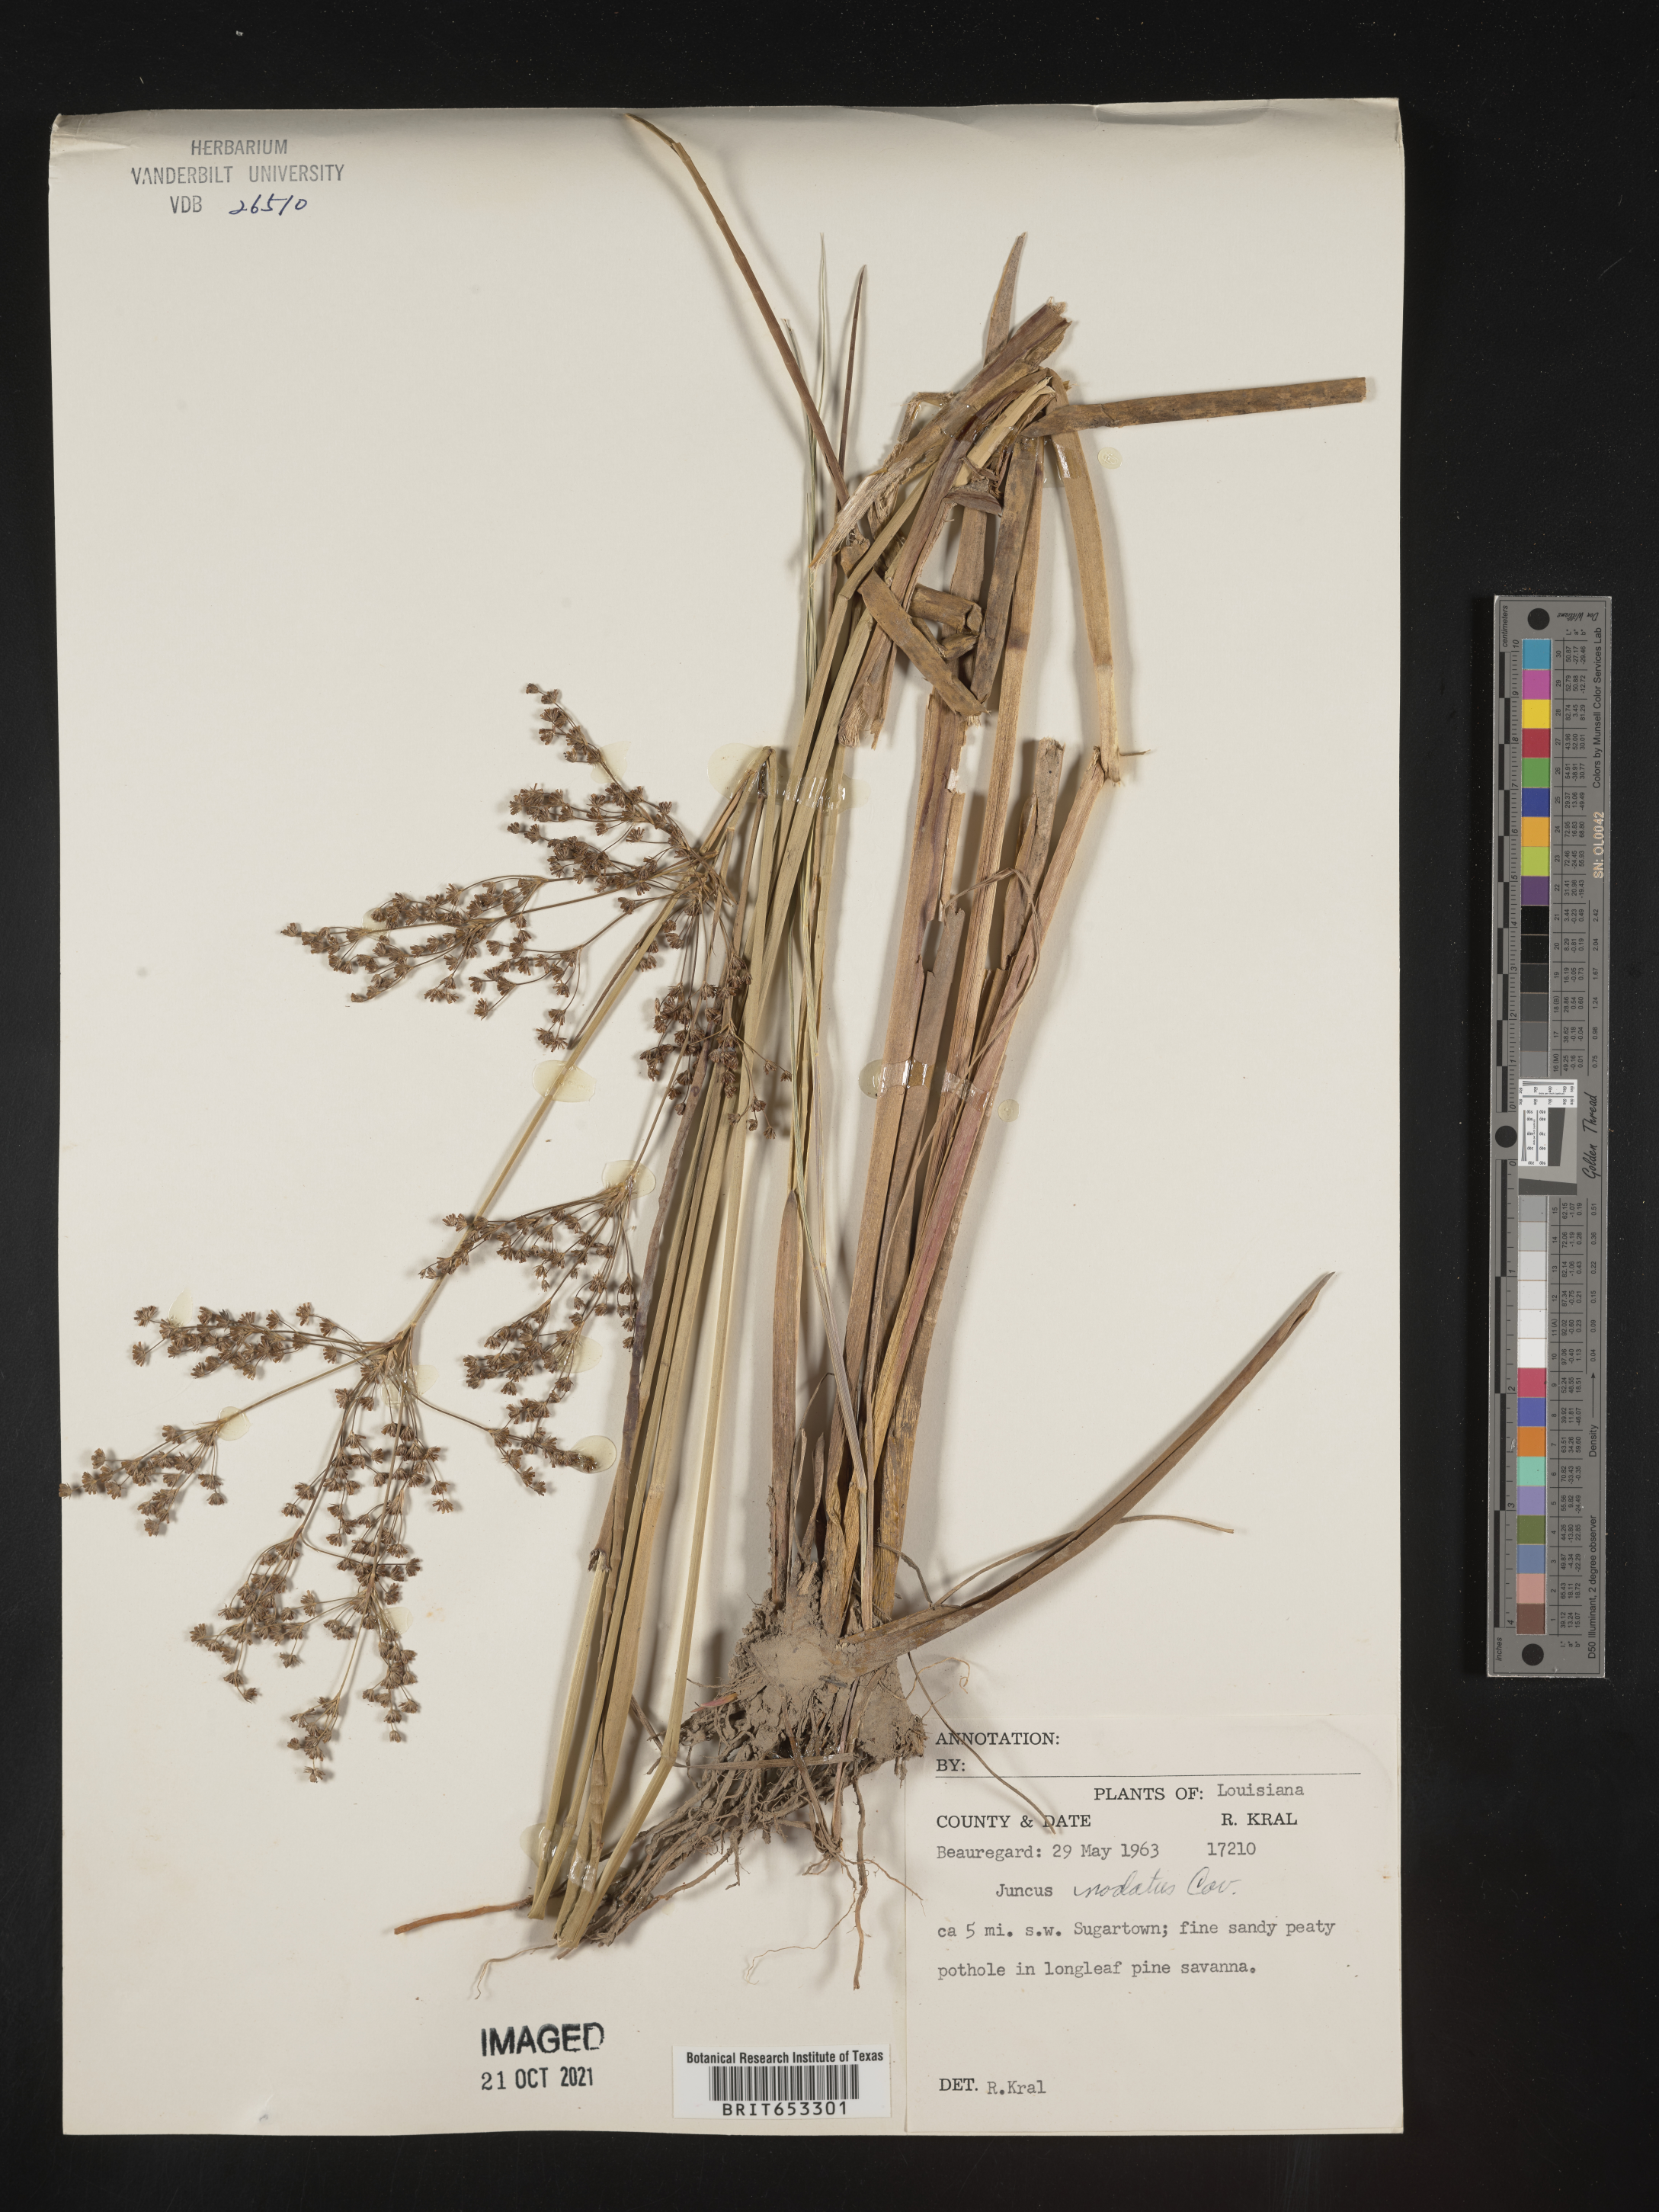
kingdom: Plantae
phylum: Tracheophyta
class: Liliopsida
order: Poales
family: Juncaceae
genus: Juncus
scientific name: Juncus nodatus
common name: Stout rush
